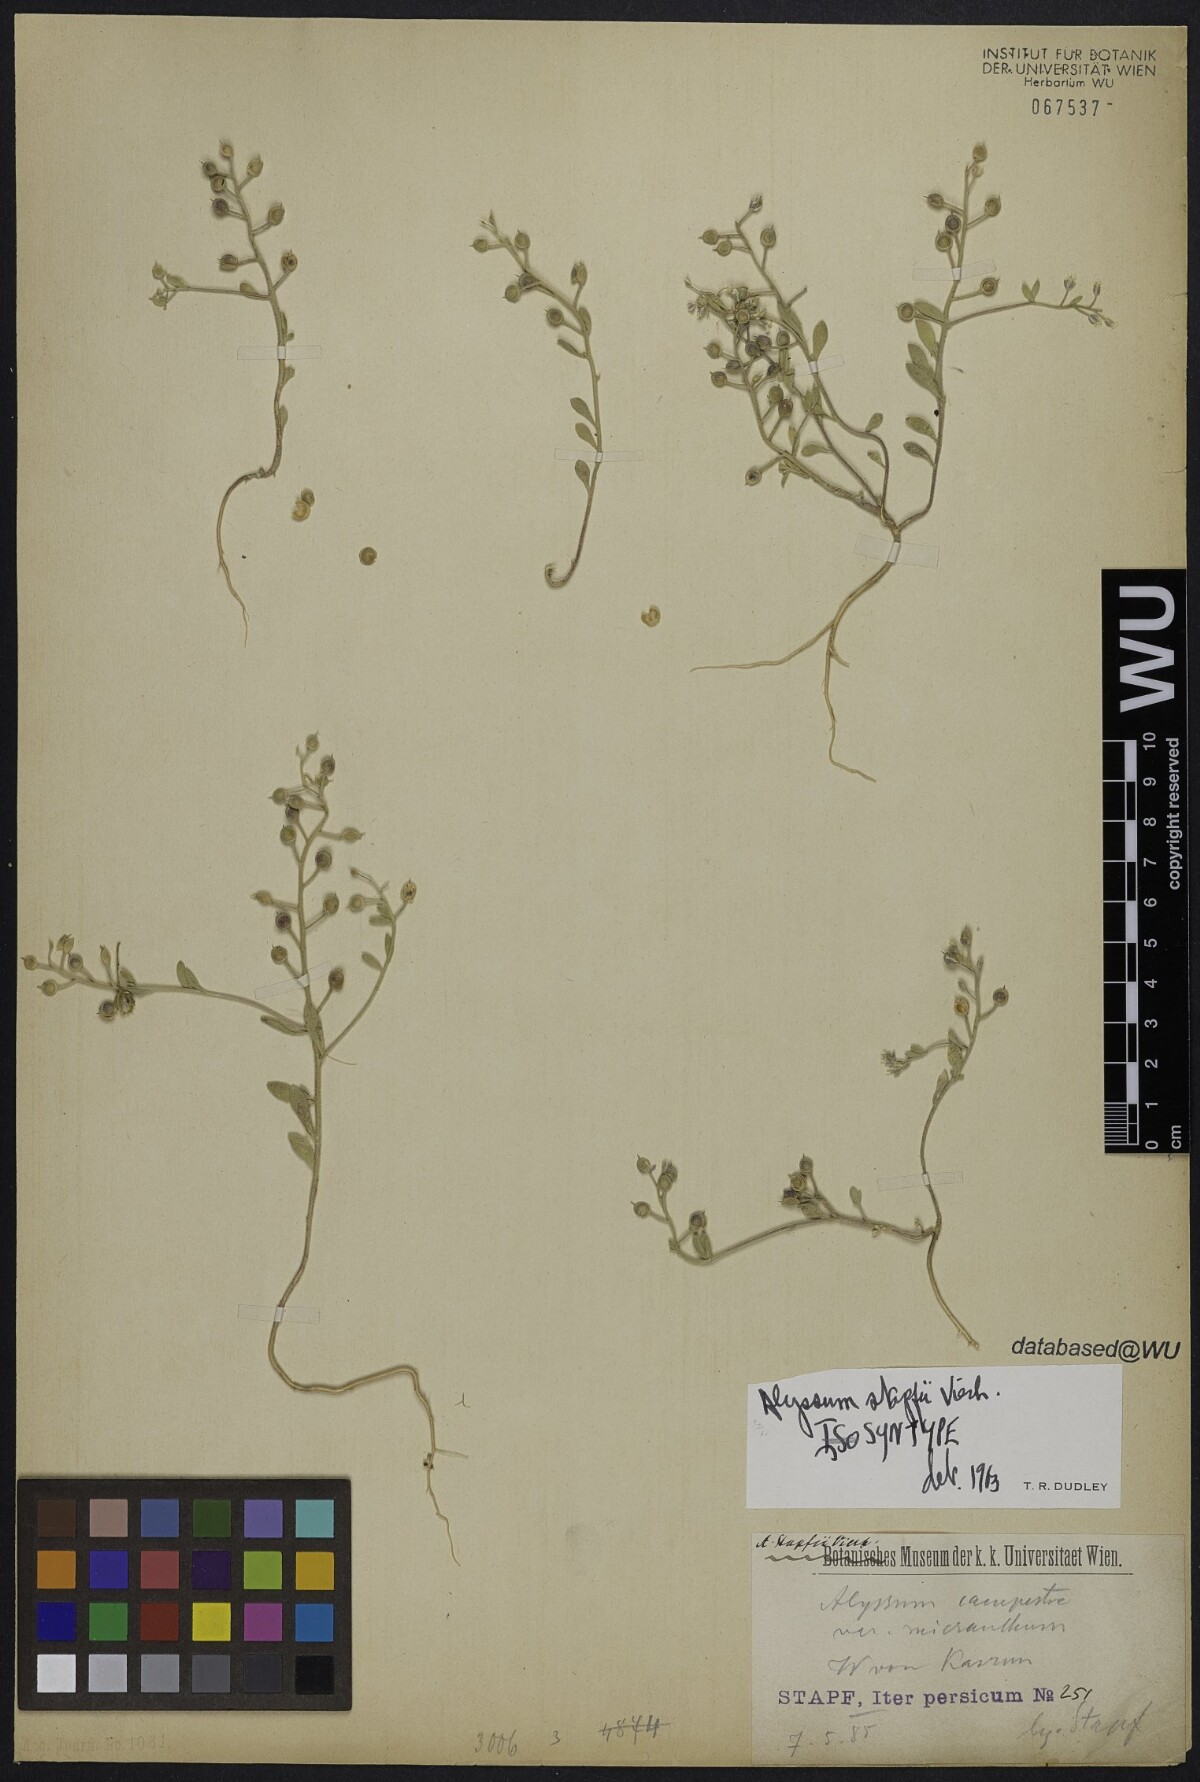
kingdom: Plantae
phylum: Tracheophyta
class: Magnoliopsida
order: Brassicales
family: Brassicaceae
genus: Alyssum
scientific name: Alyssum stapfii
